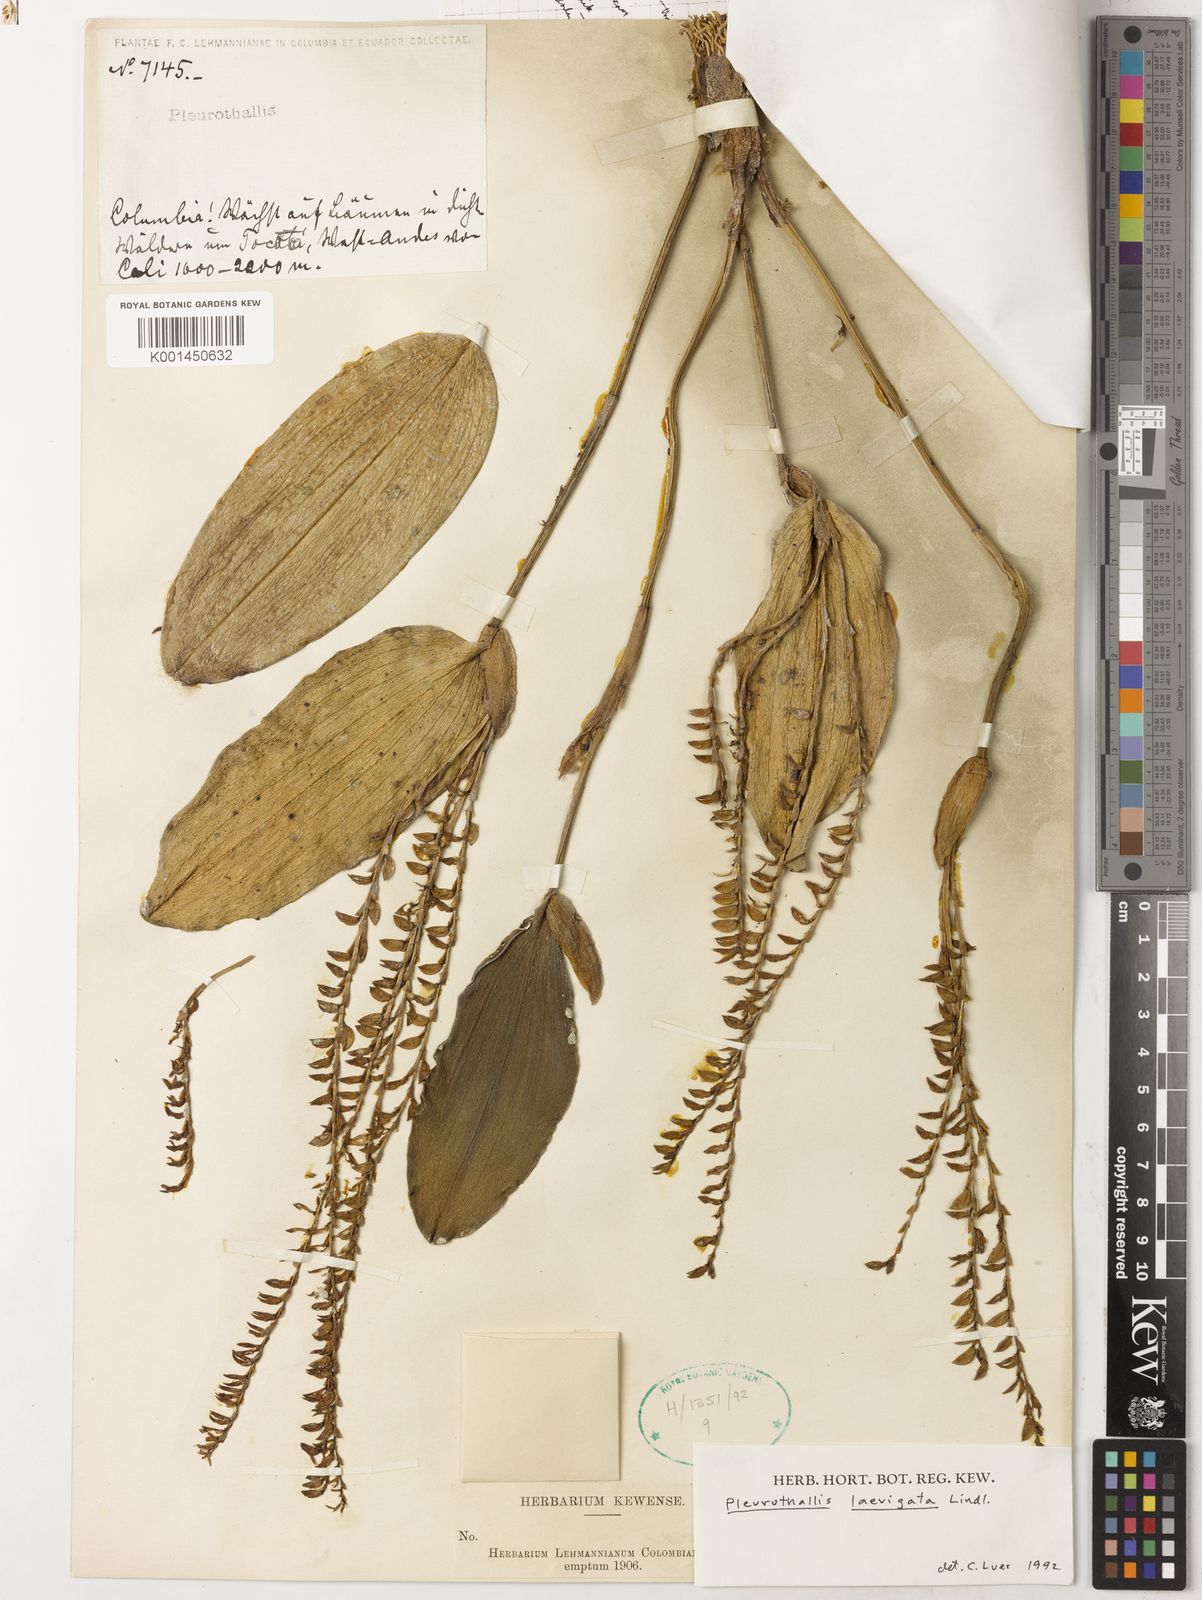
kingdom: Plantae
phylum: Tracheophyta
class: Liliopsida
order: Asparagales
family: Orchidaceae
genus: Stelis
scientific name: Stelis laevigata
